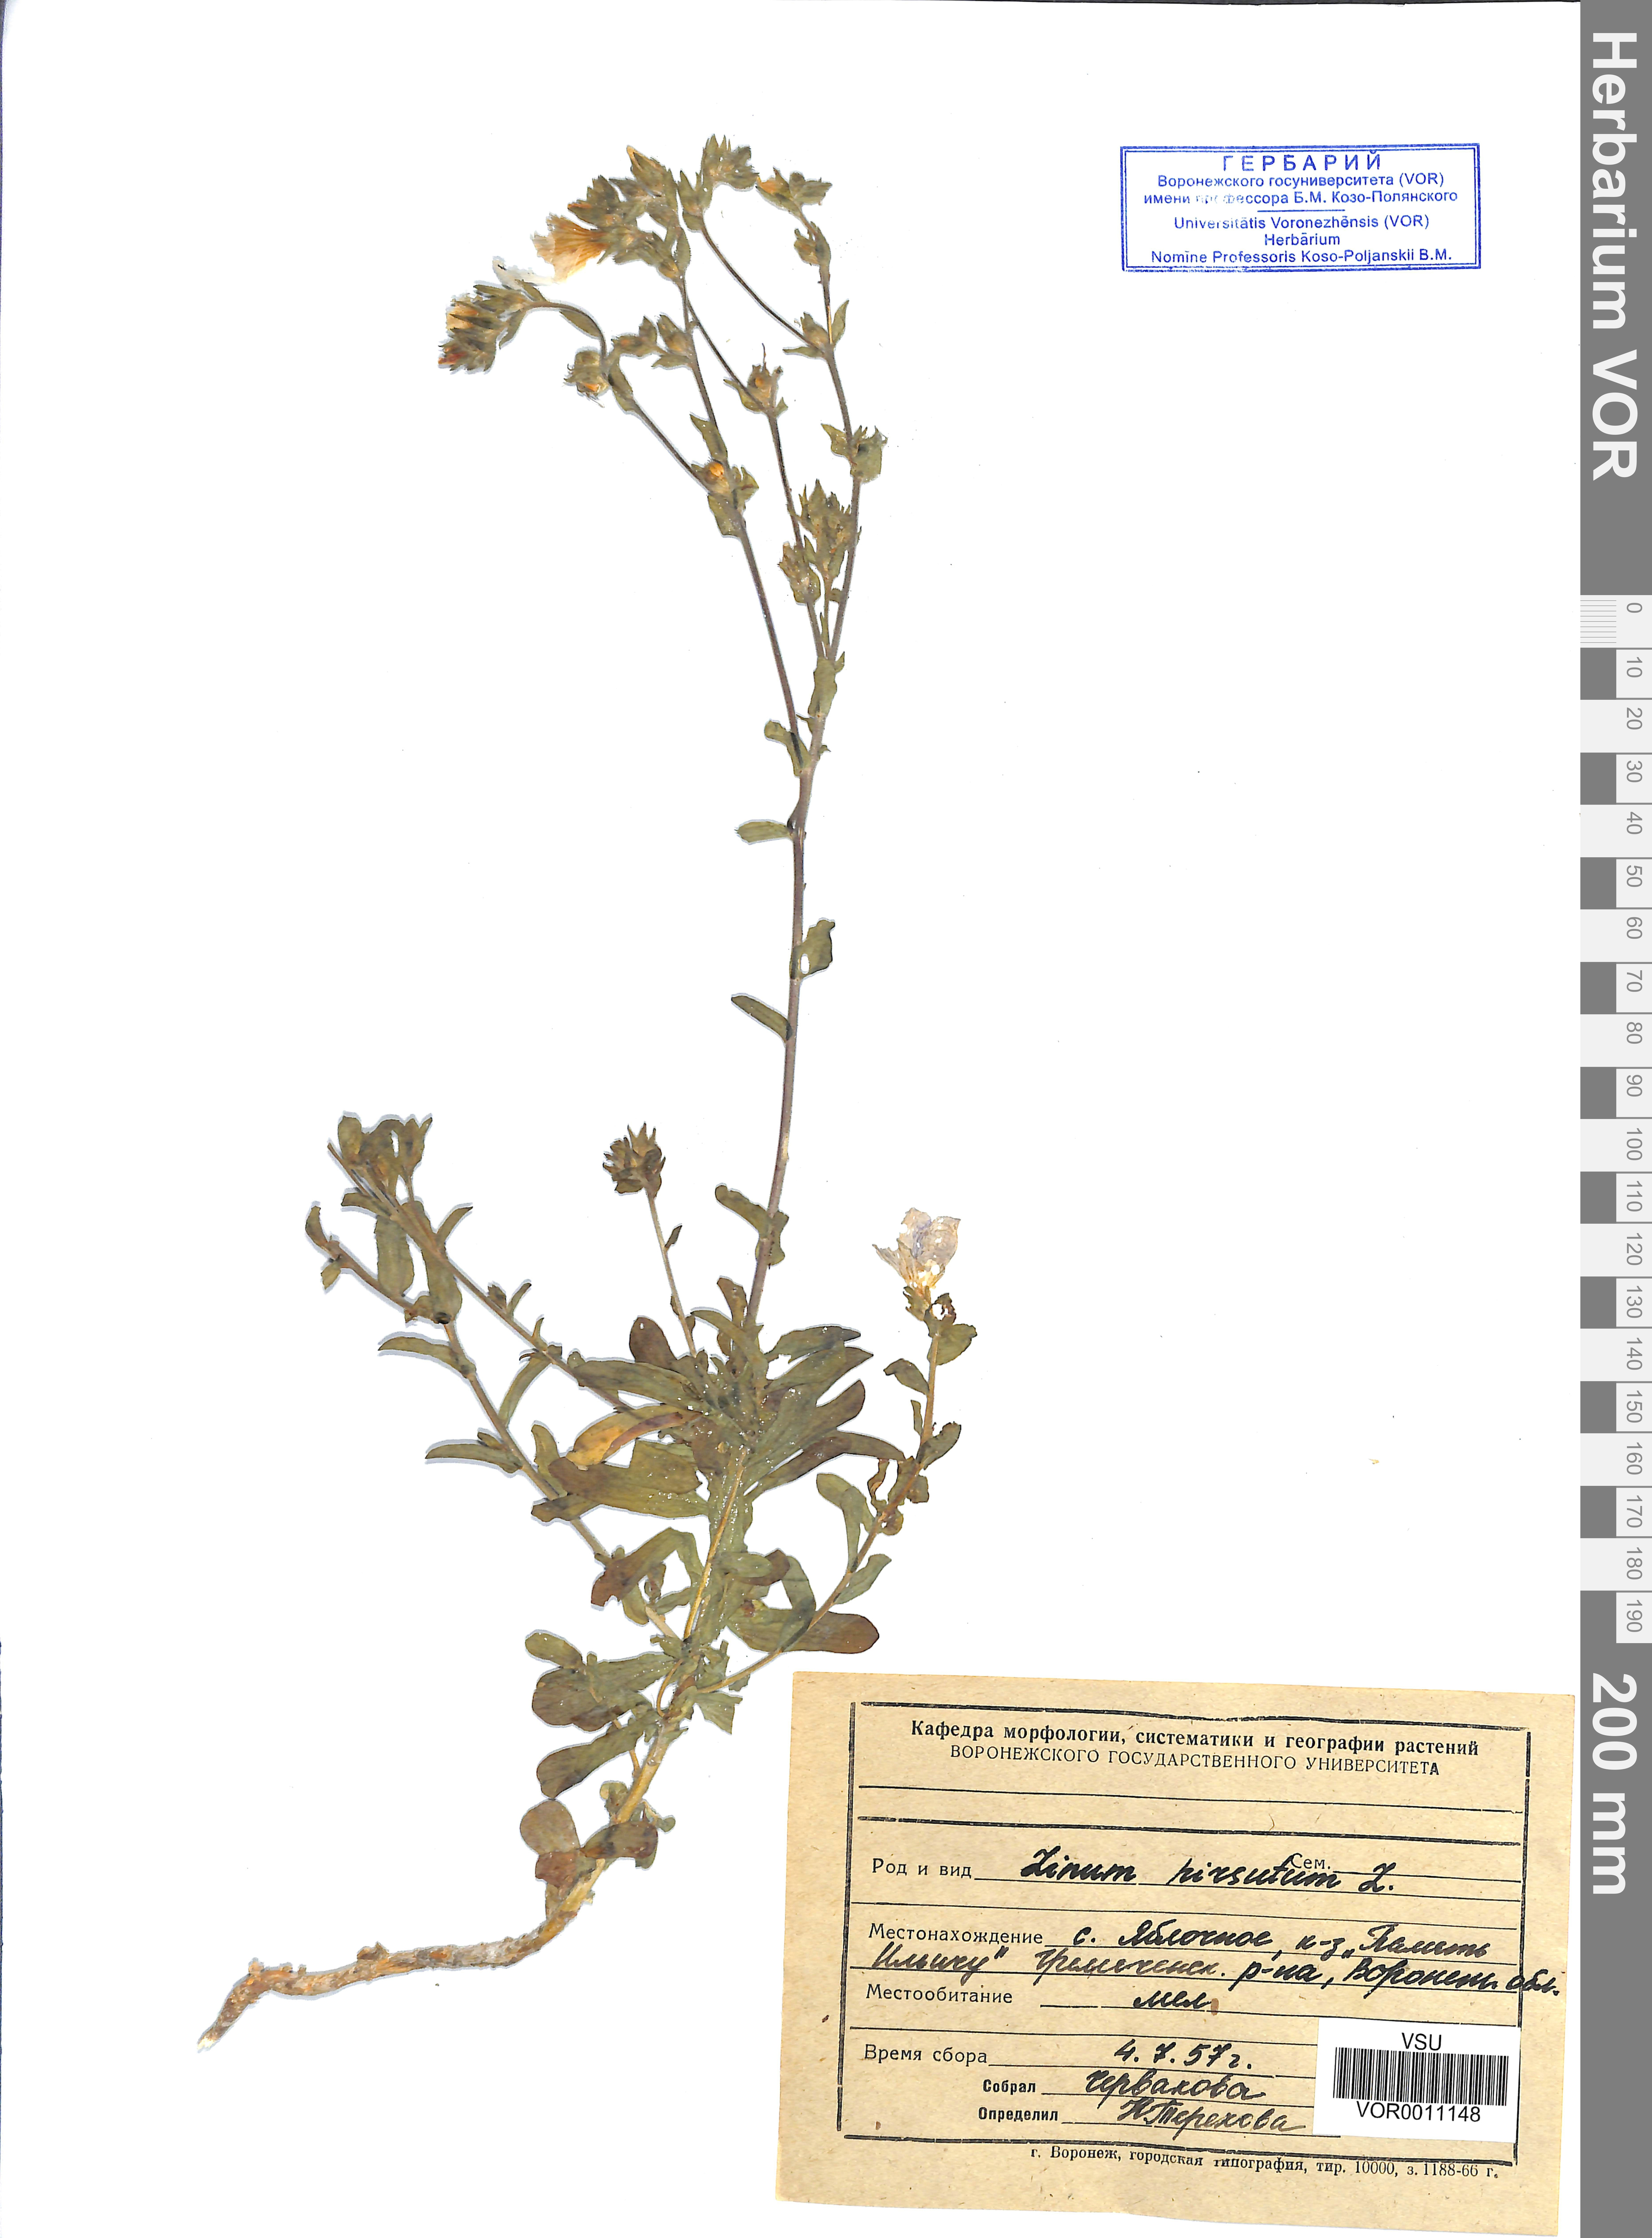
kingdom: Plantae
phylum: Tracheophyta
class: Magnoliopsida
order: Malpighiales
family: Linaceae
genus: Linum
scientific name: Linum hirsutum
